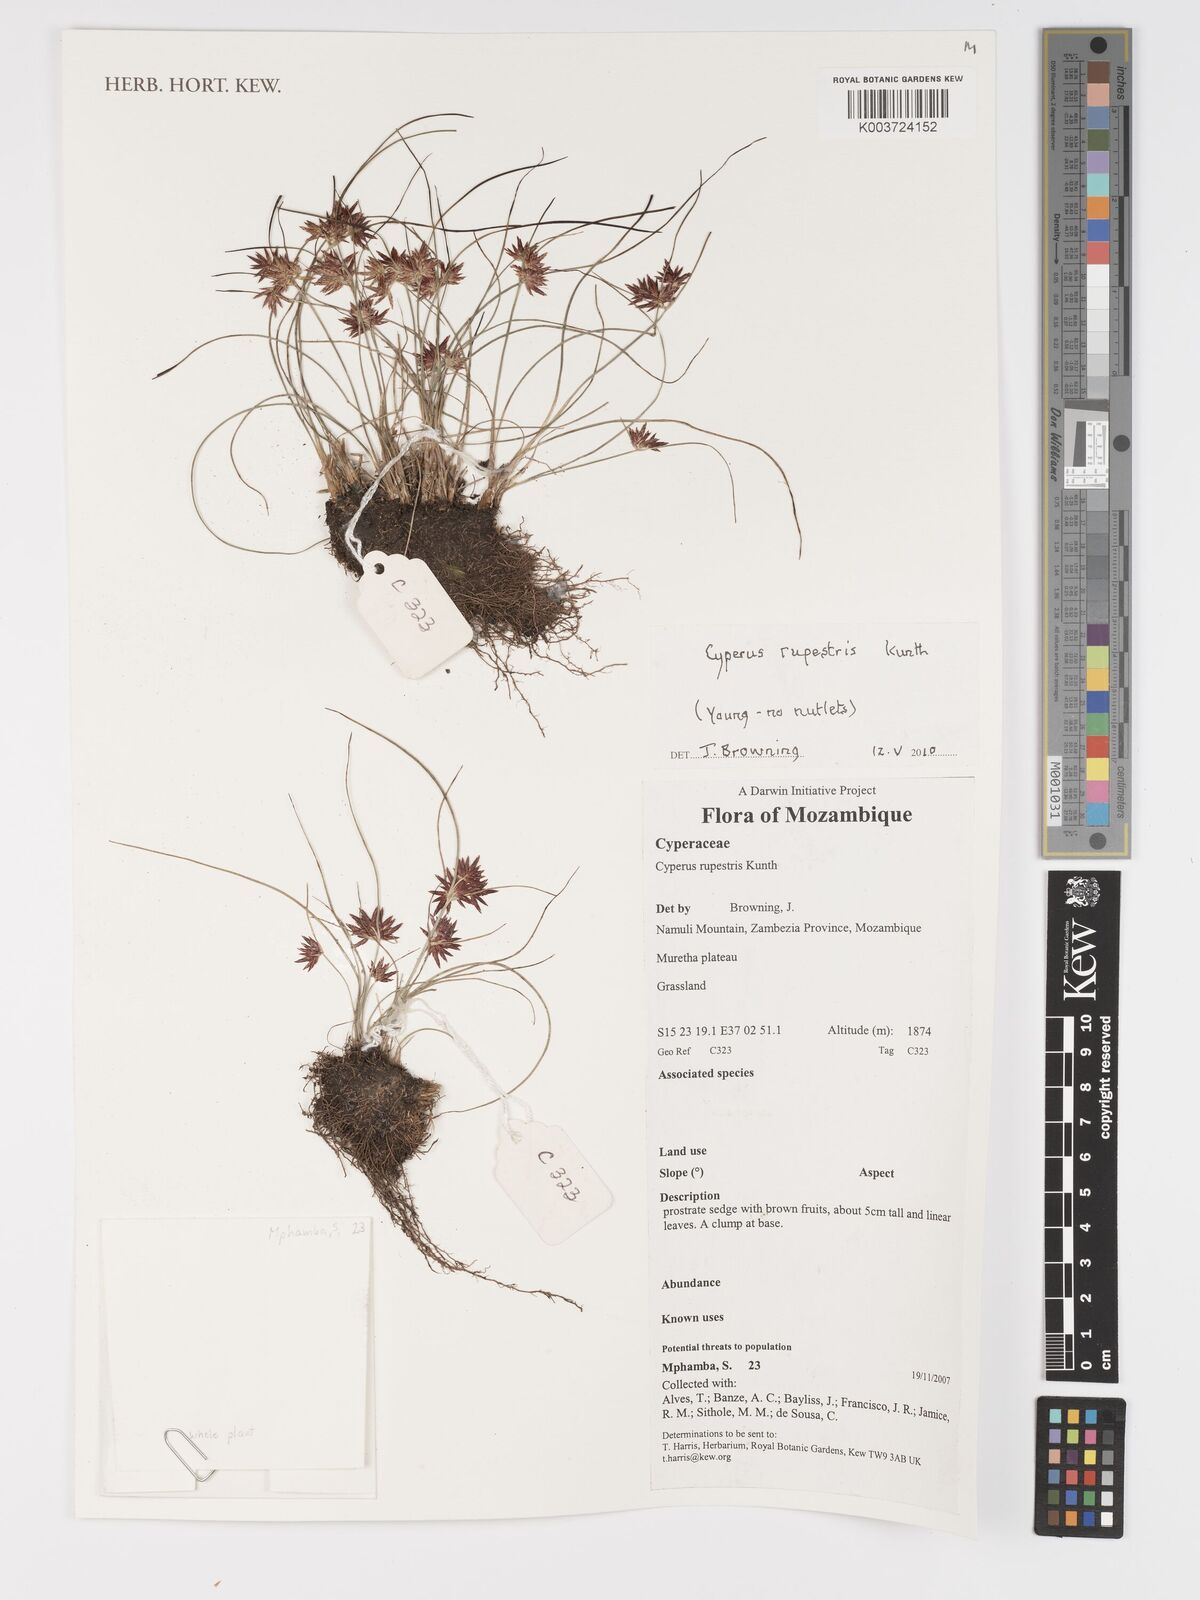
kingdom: Plantae
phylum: Tracheophyta
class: Liliopsida
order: Poales
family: Cyperaceae
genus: Cyperus
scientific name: Cyperus rupestris
